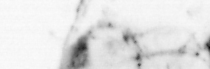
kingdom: Animalia
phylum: Arthropoda
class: Copepoda
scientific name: Copepoda
